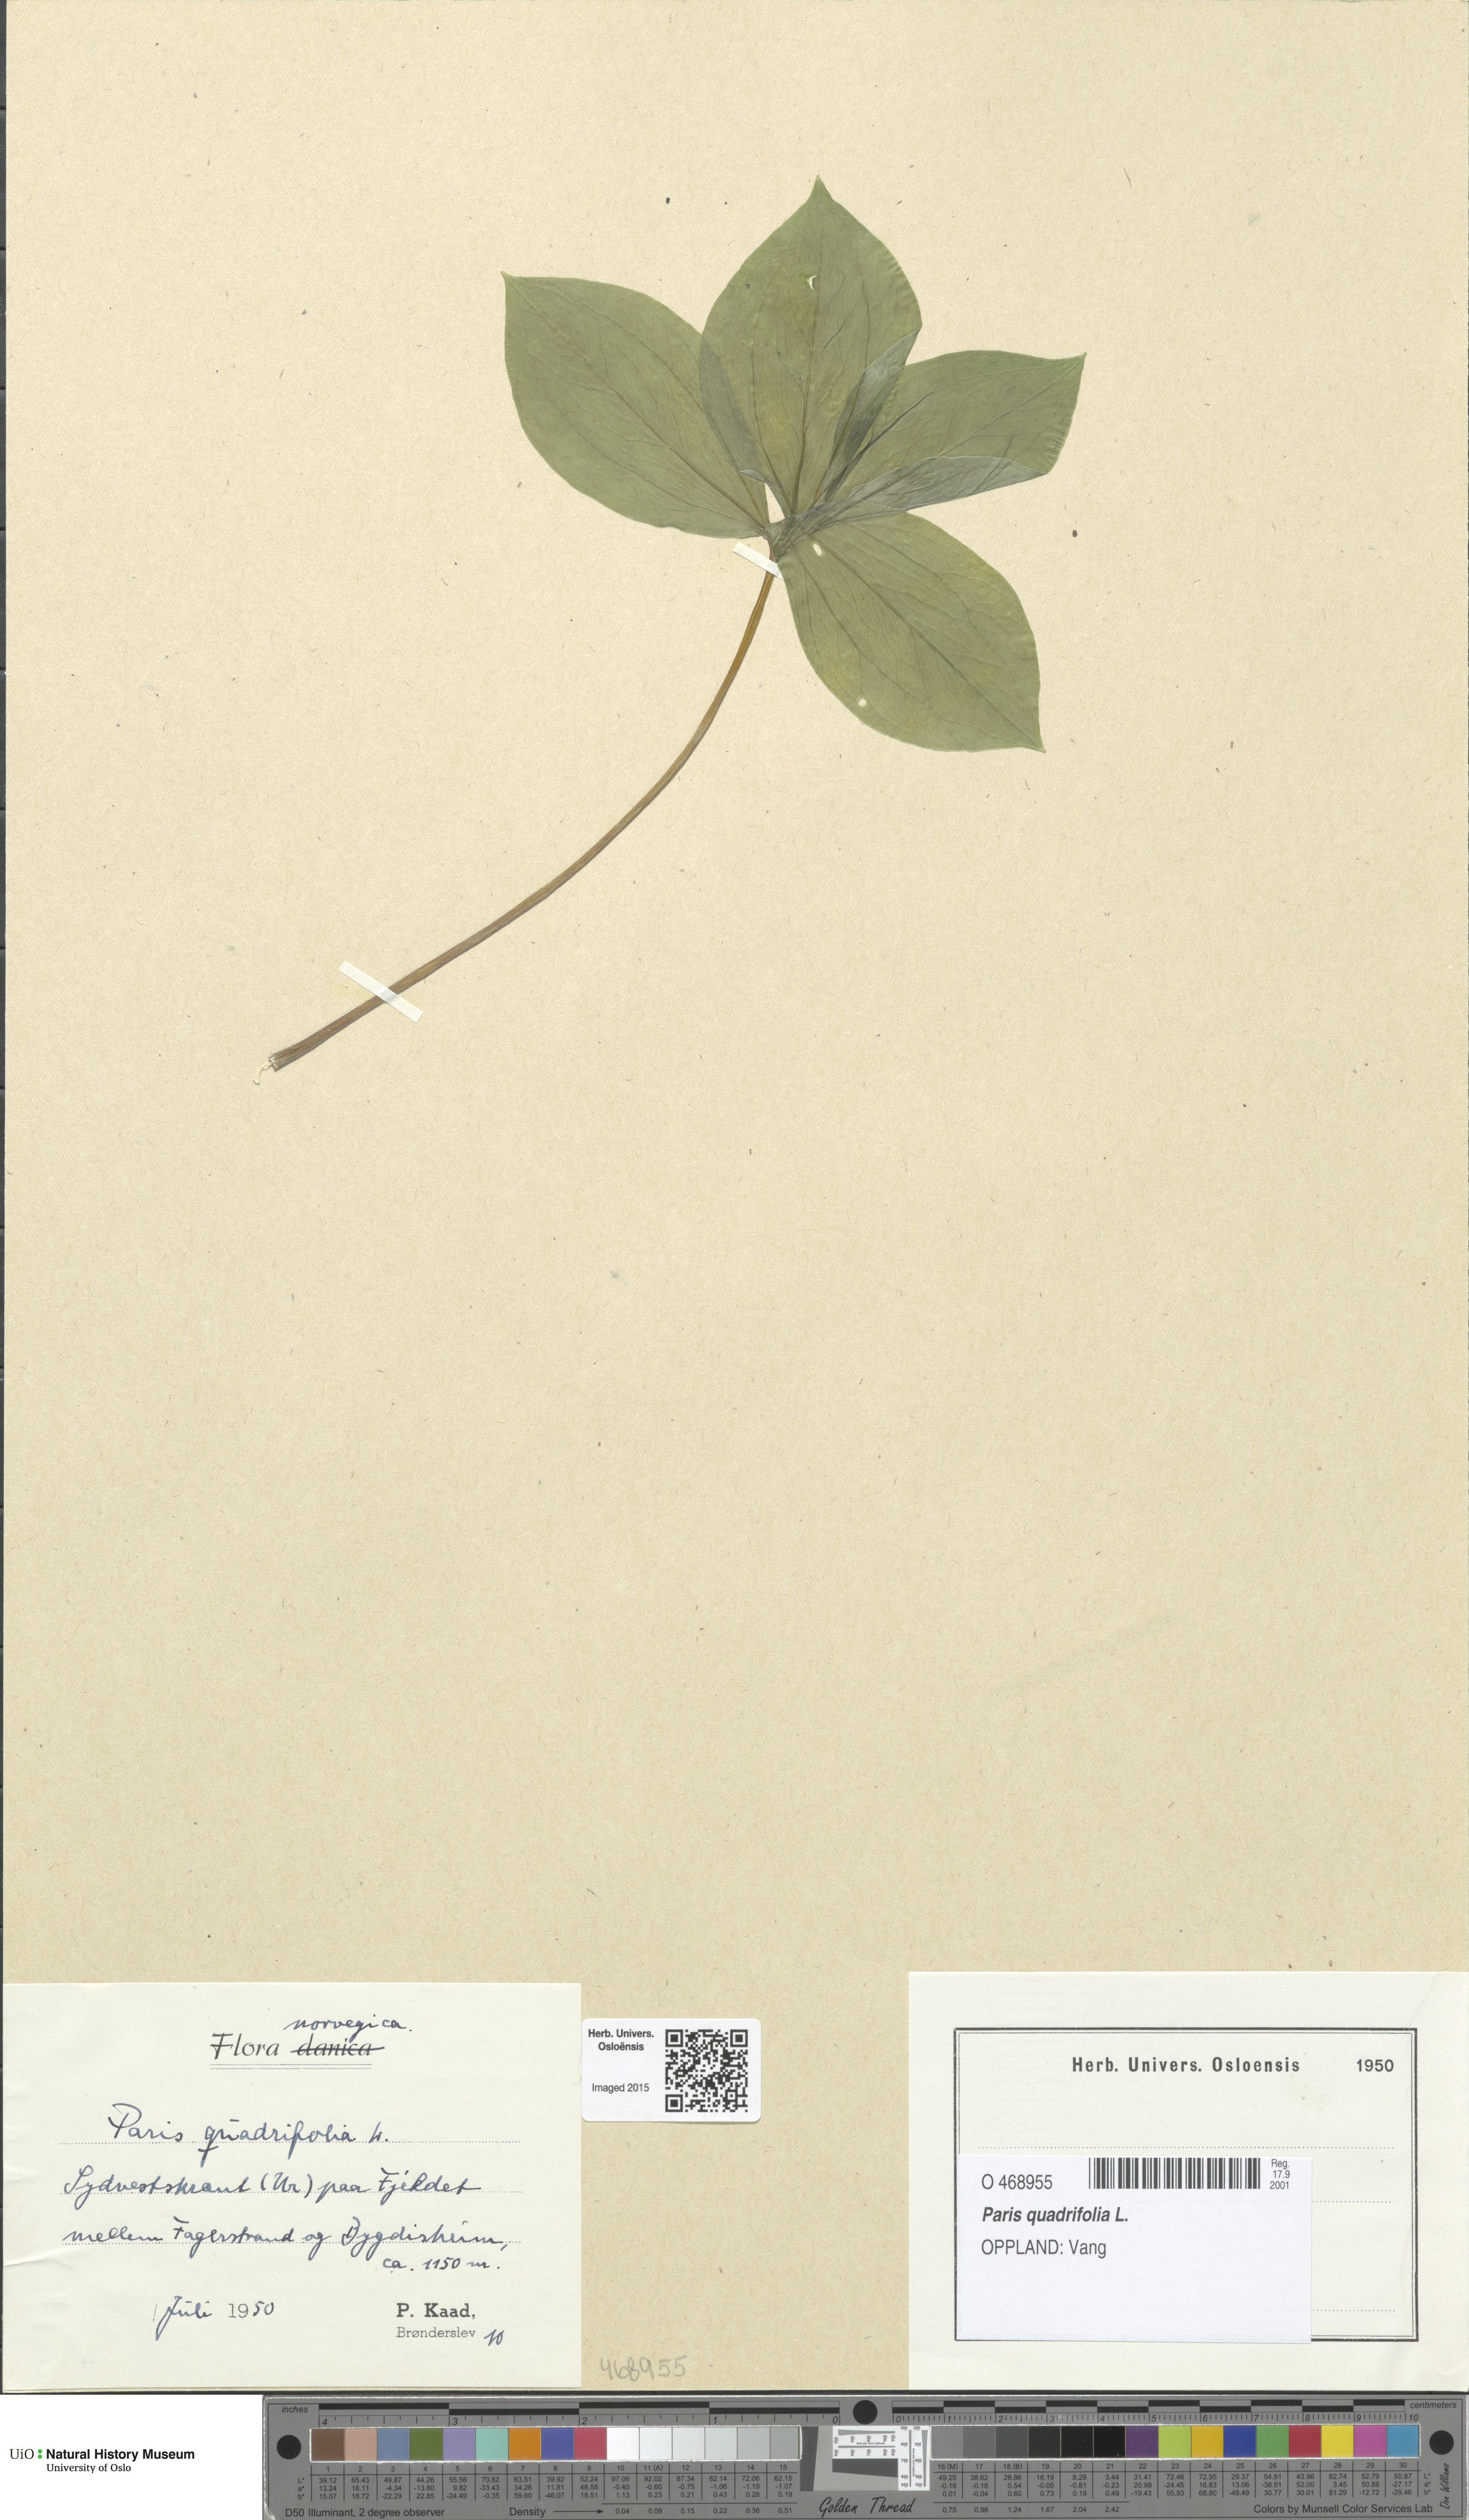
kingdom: Plantae
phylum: Tracheophyta
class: Liliopsida
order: Liliales
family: Melanthiaceae
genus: Paris
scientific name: Paris quadrifolia
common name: Herb-paris
